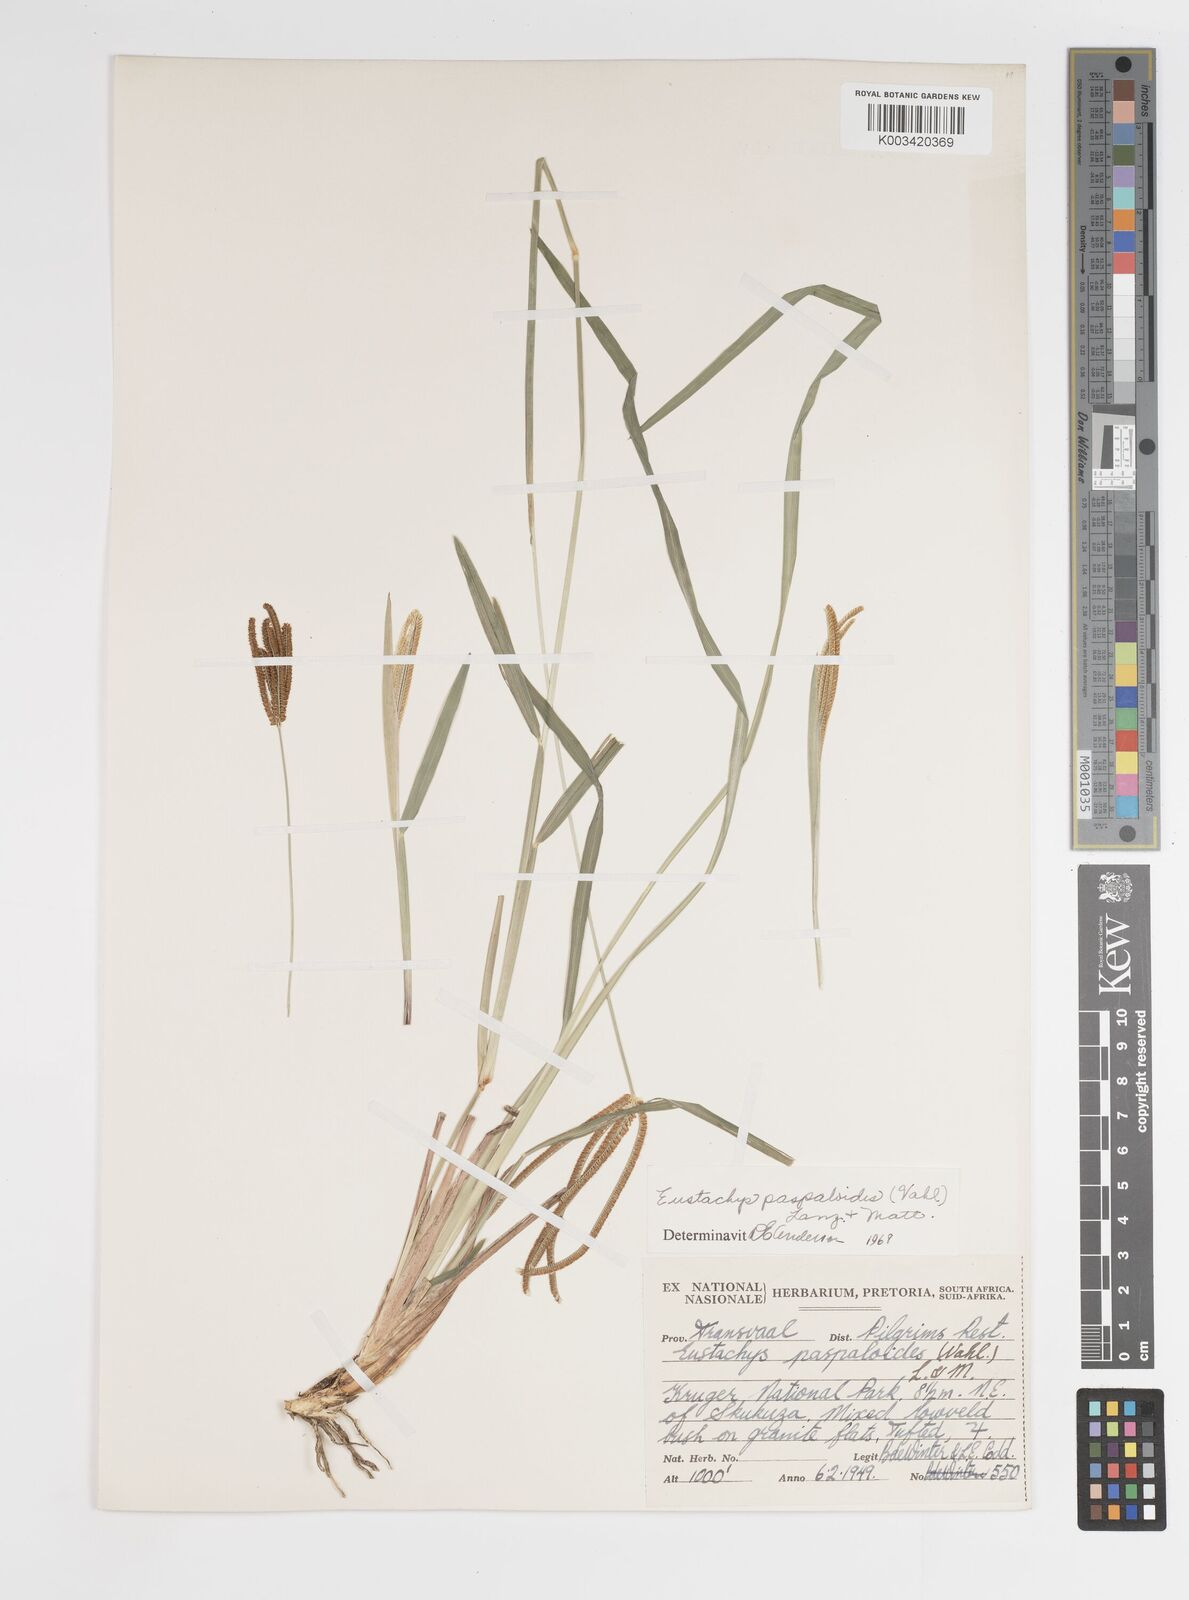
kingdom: Plantae
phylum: Tracheophyta
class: Liliopsida
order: Poales
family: Poaceae
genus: Eustachys
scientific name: Eustachys paspaloides
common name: Caribbean fingergrass
